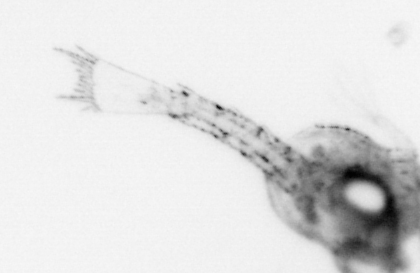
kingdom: Animalia
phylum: Arthropoda
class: Malacostraca
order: Decapoda
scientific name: Decapoda
